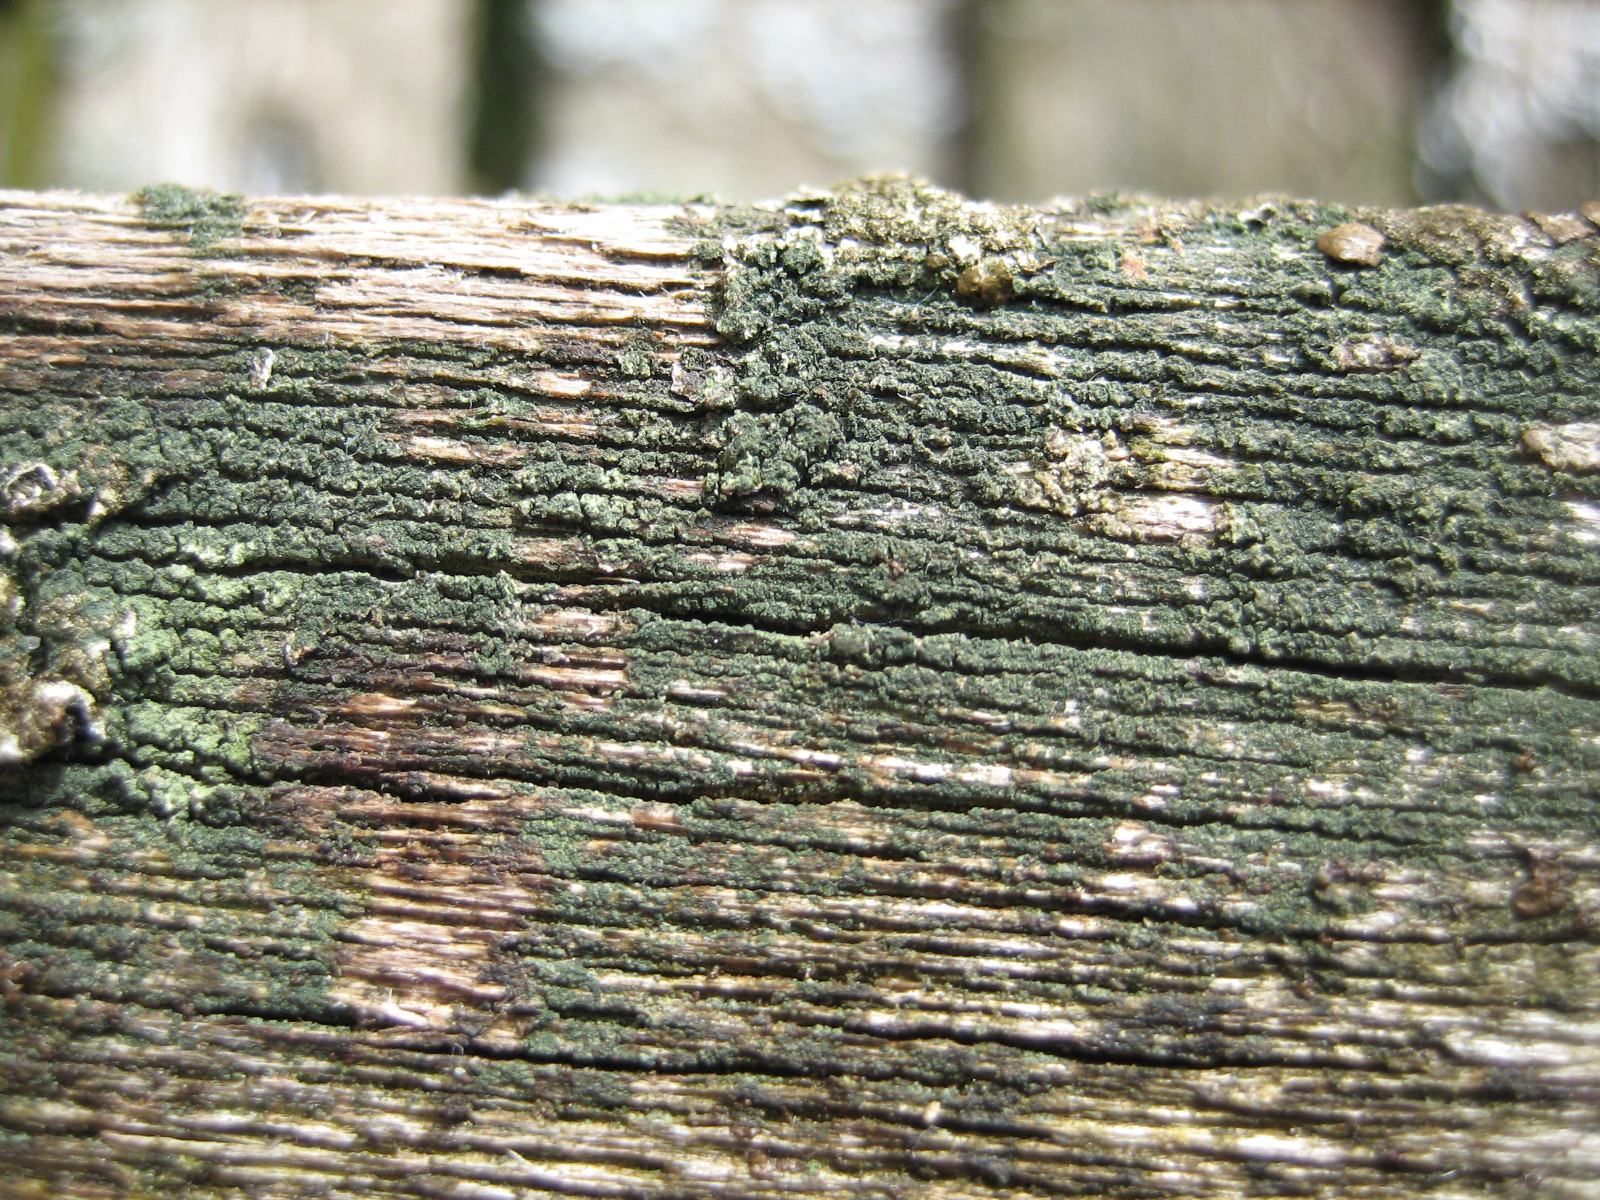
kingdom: Fungi
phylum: Ascomycota
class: Lecanoromycetes
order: Baeomycetales
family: Trapeliaceae
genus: Trapeliopsis
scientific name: Trapeliopsis flexuosa
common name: spanskgrøn skivelav
